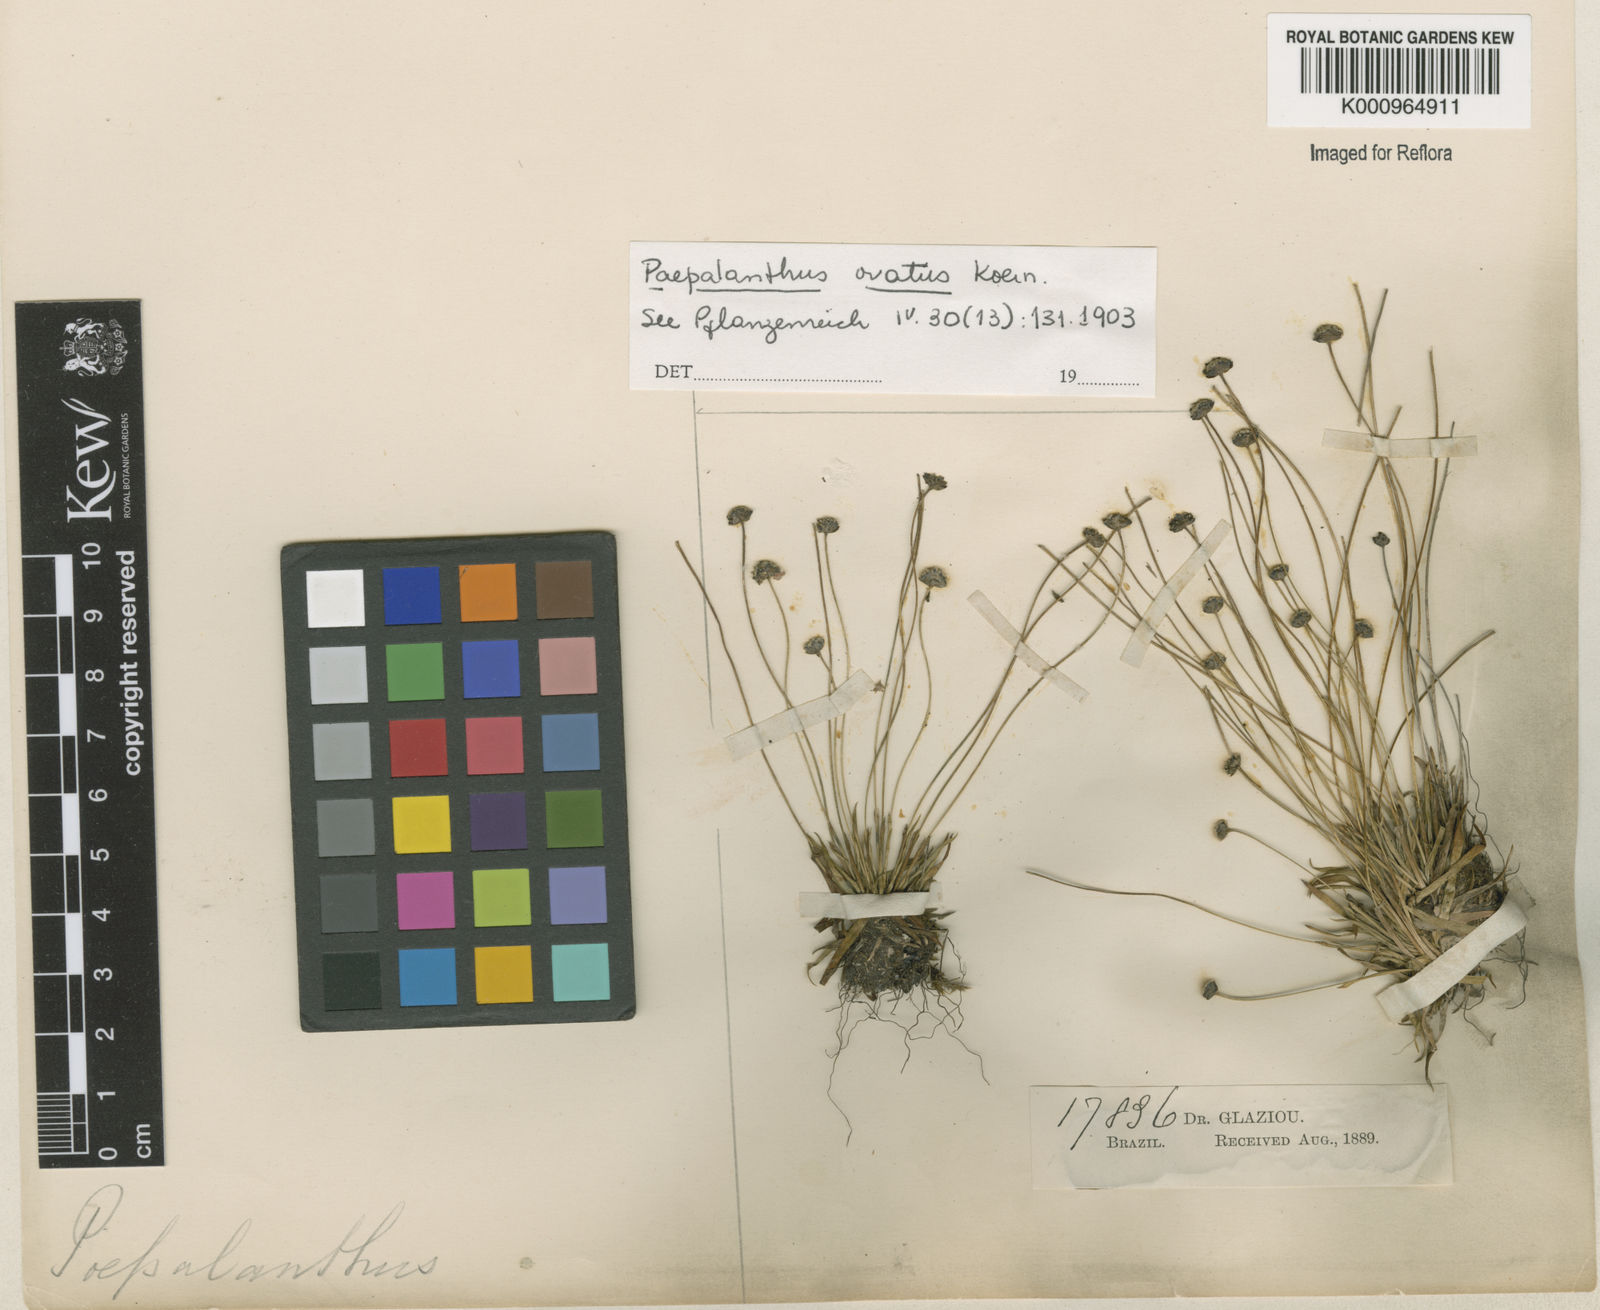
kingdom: Plantae
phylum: Tracheophyta
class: Liliopsida
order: Poales
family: Eriocaulaceae
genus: Paepalanthus
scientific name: Paepalanthus
